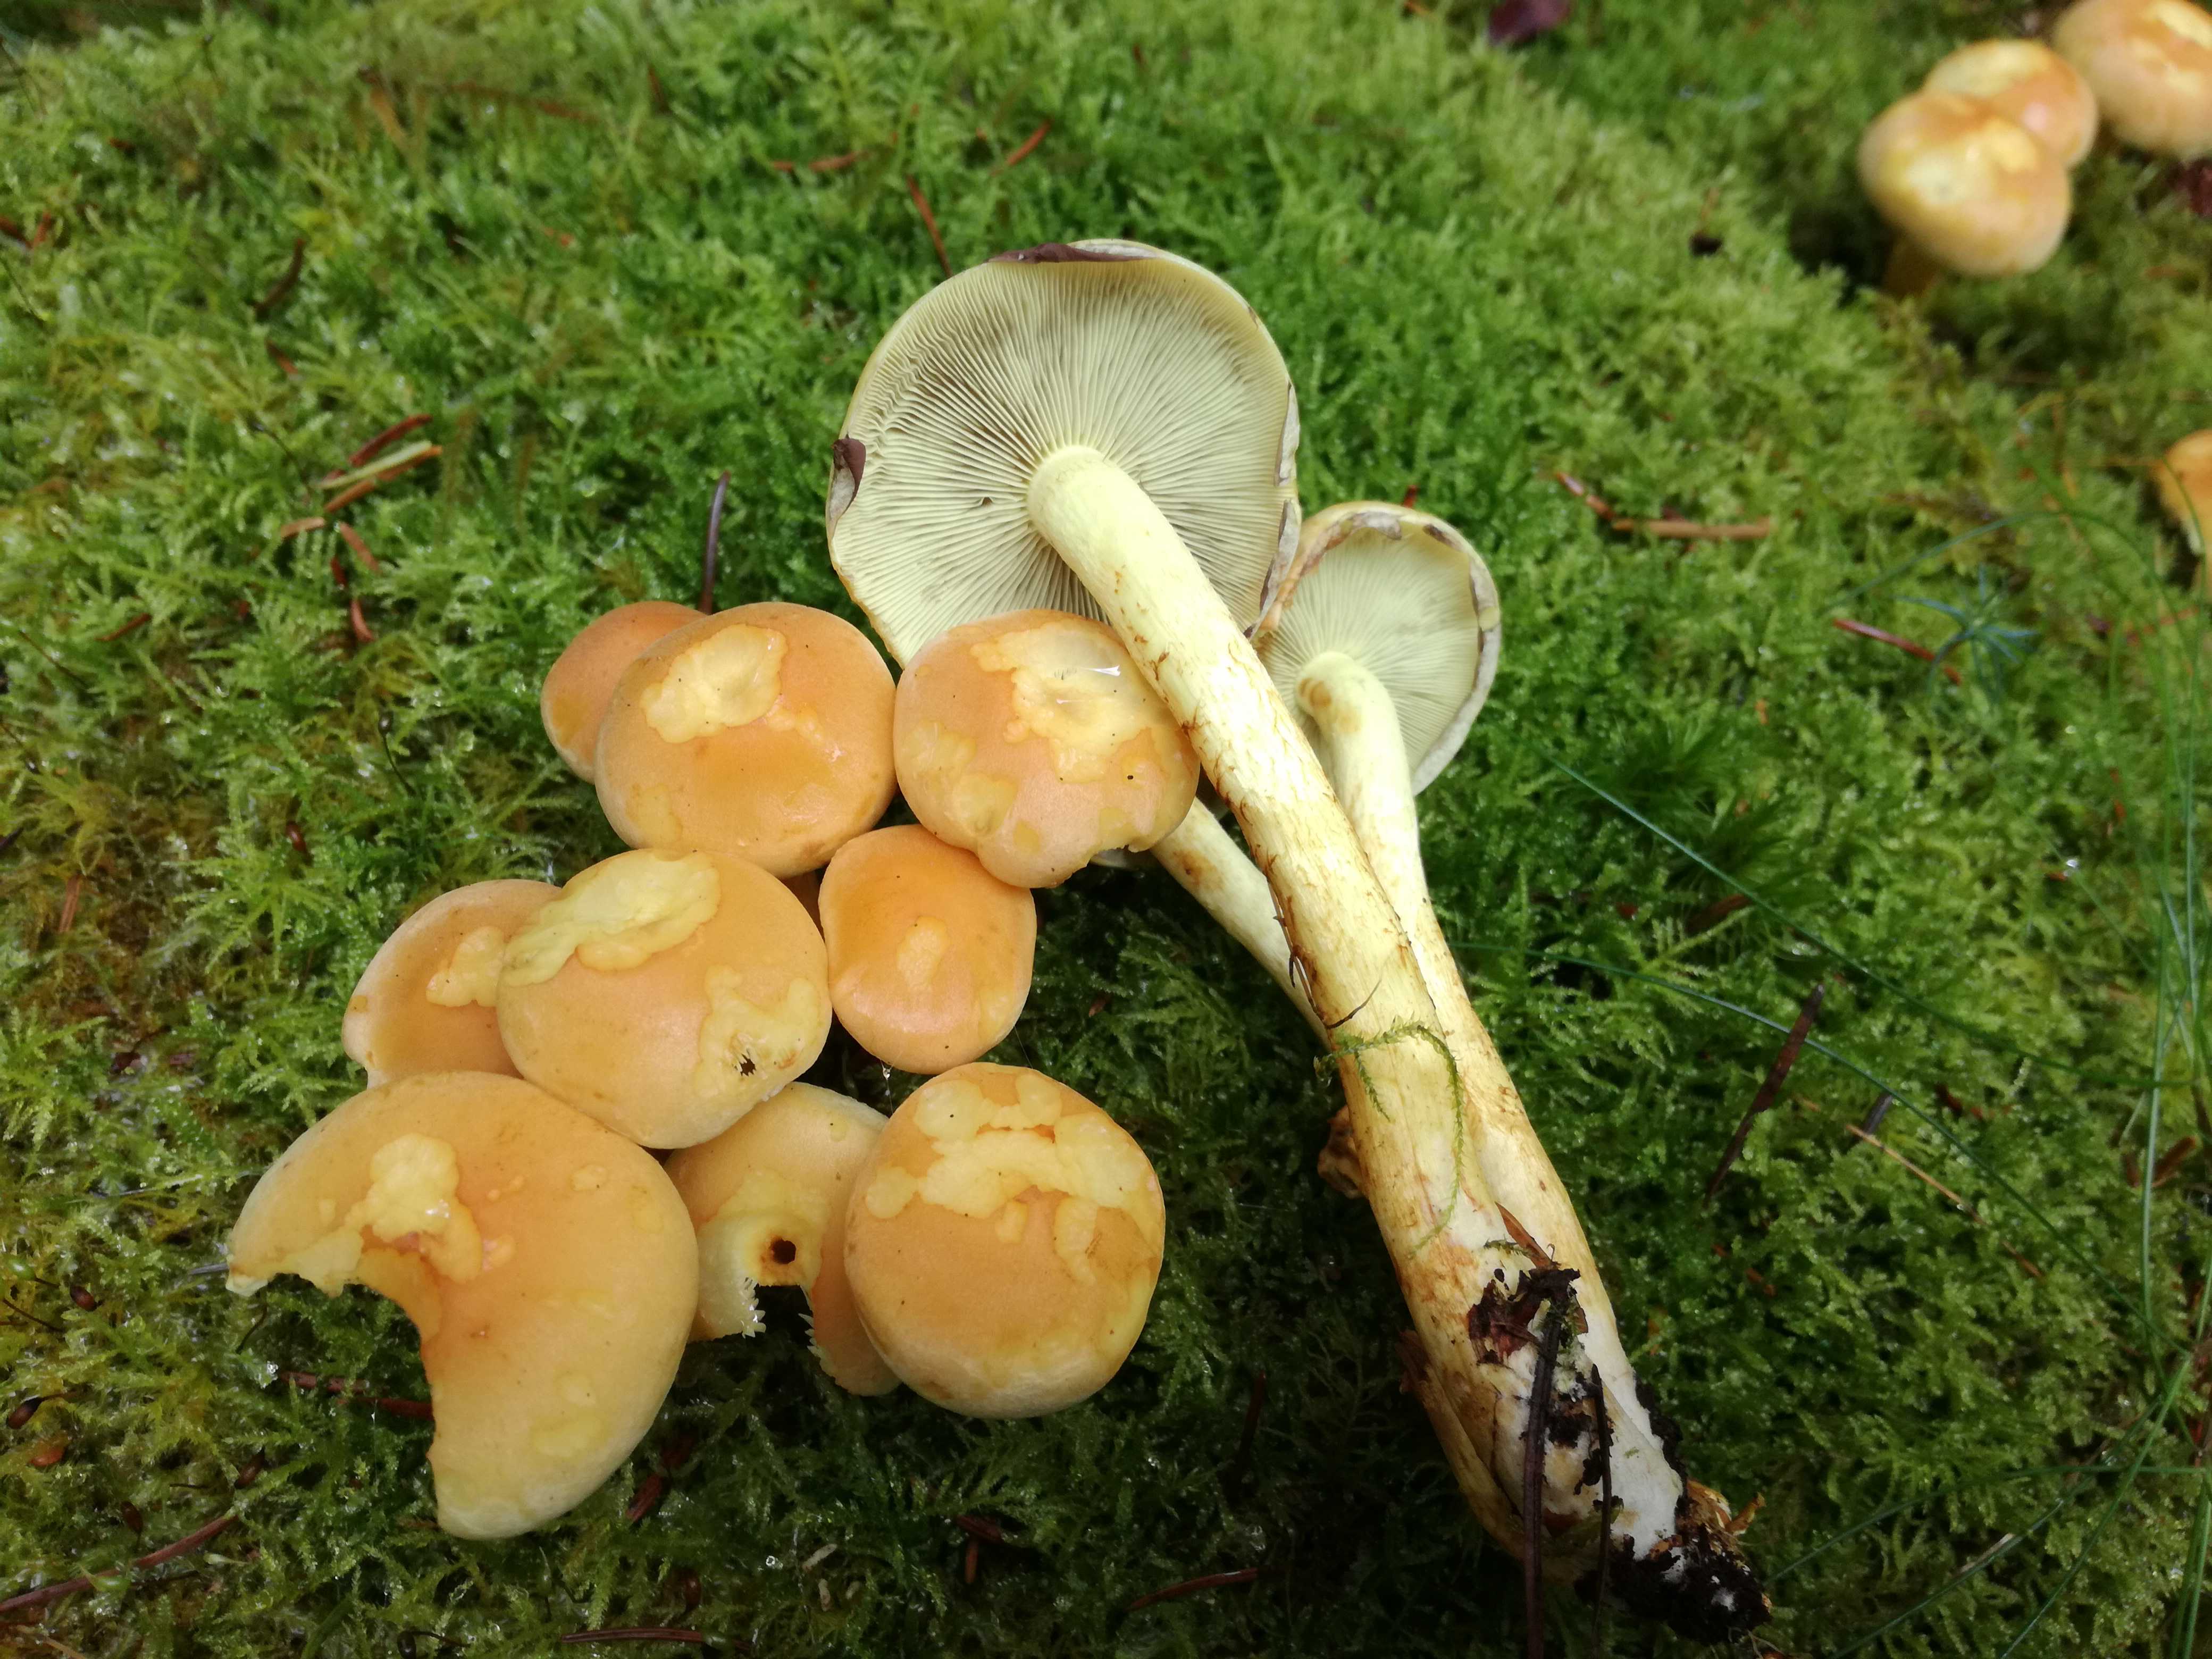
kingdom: Fungi
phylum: Basidiomycota
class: Agaricomycetes
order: Agaricales
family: Strophariaceae
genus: Hypholoma
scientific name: Hypholoma fasciculare
